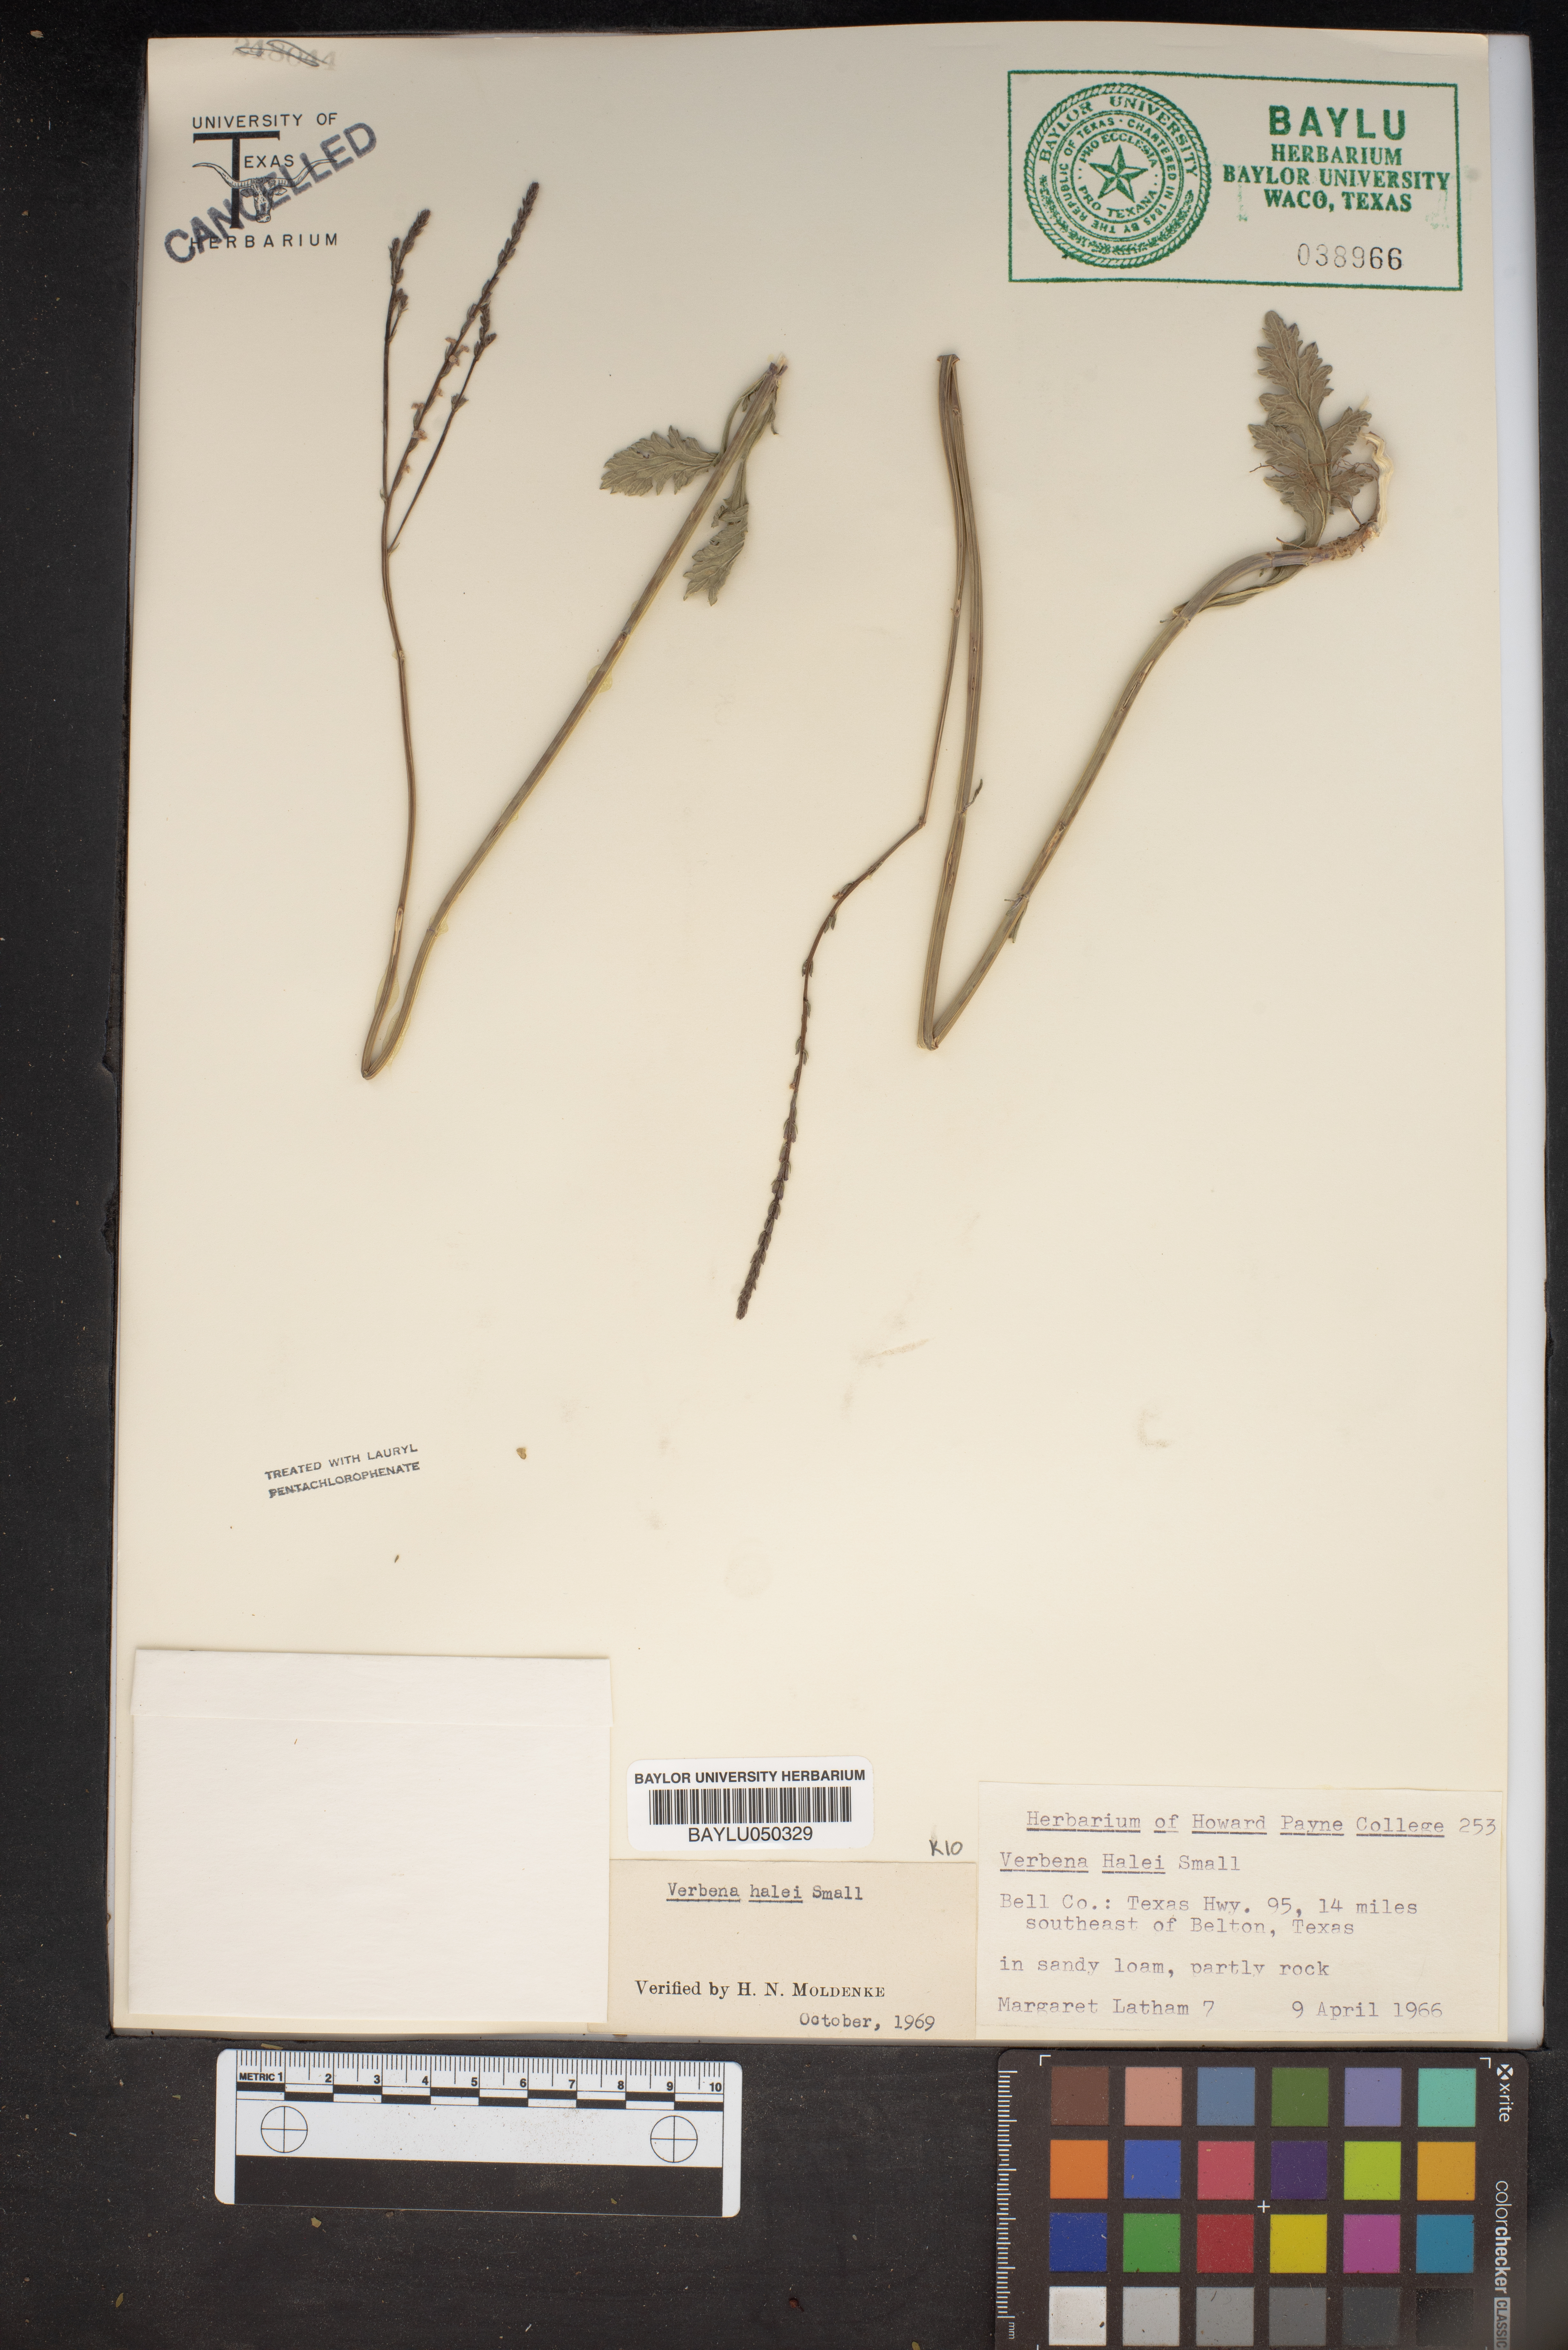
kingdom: Plantae
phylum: Tracheophyta
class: Magnoliopsida
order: Lamiales
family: Verbenaceae
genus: Verbena
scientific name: Verbena halei
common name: Texas vervain
